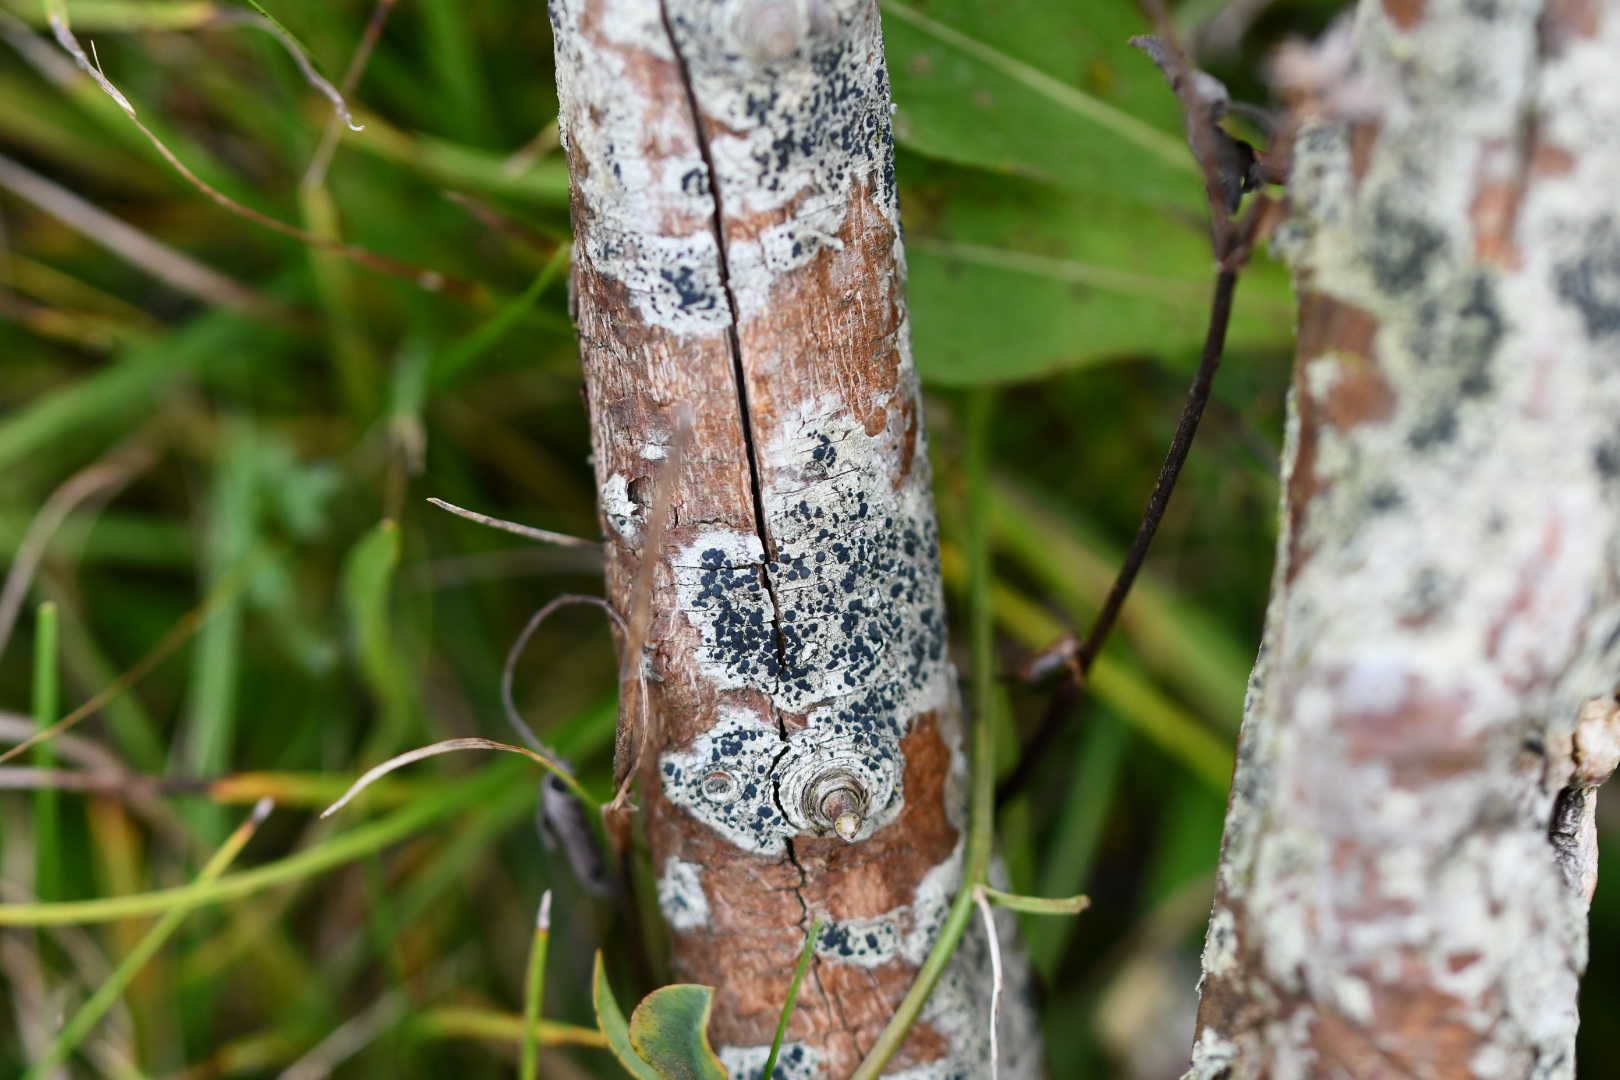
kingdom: Fungi
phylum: Ascomycota
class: Lecanoromycetes
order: Lecanorales
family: Lecanoraceae
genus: Lecidella
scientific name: Lecidella elaeochroma
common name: grågrøn skivelav
